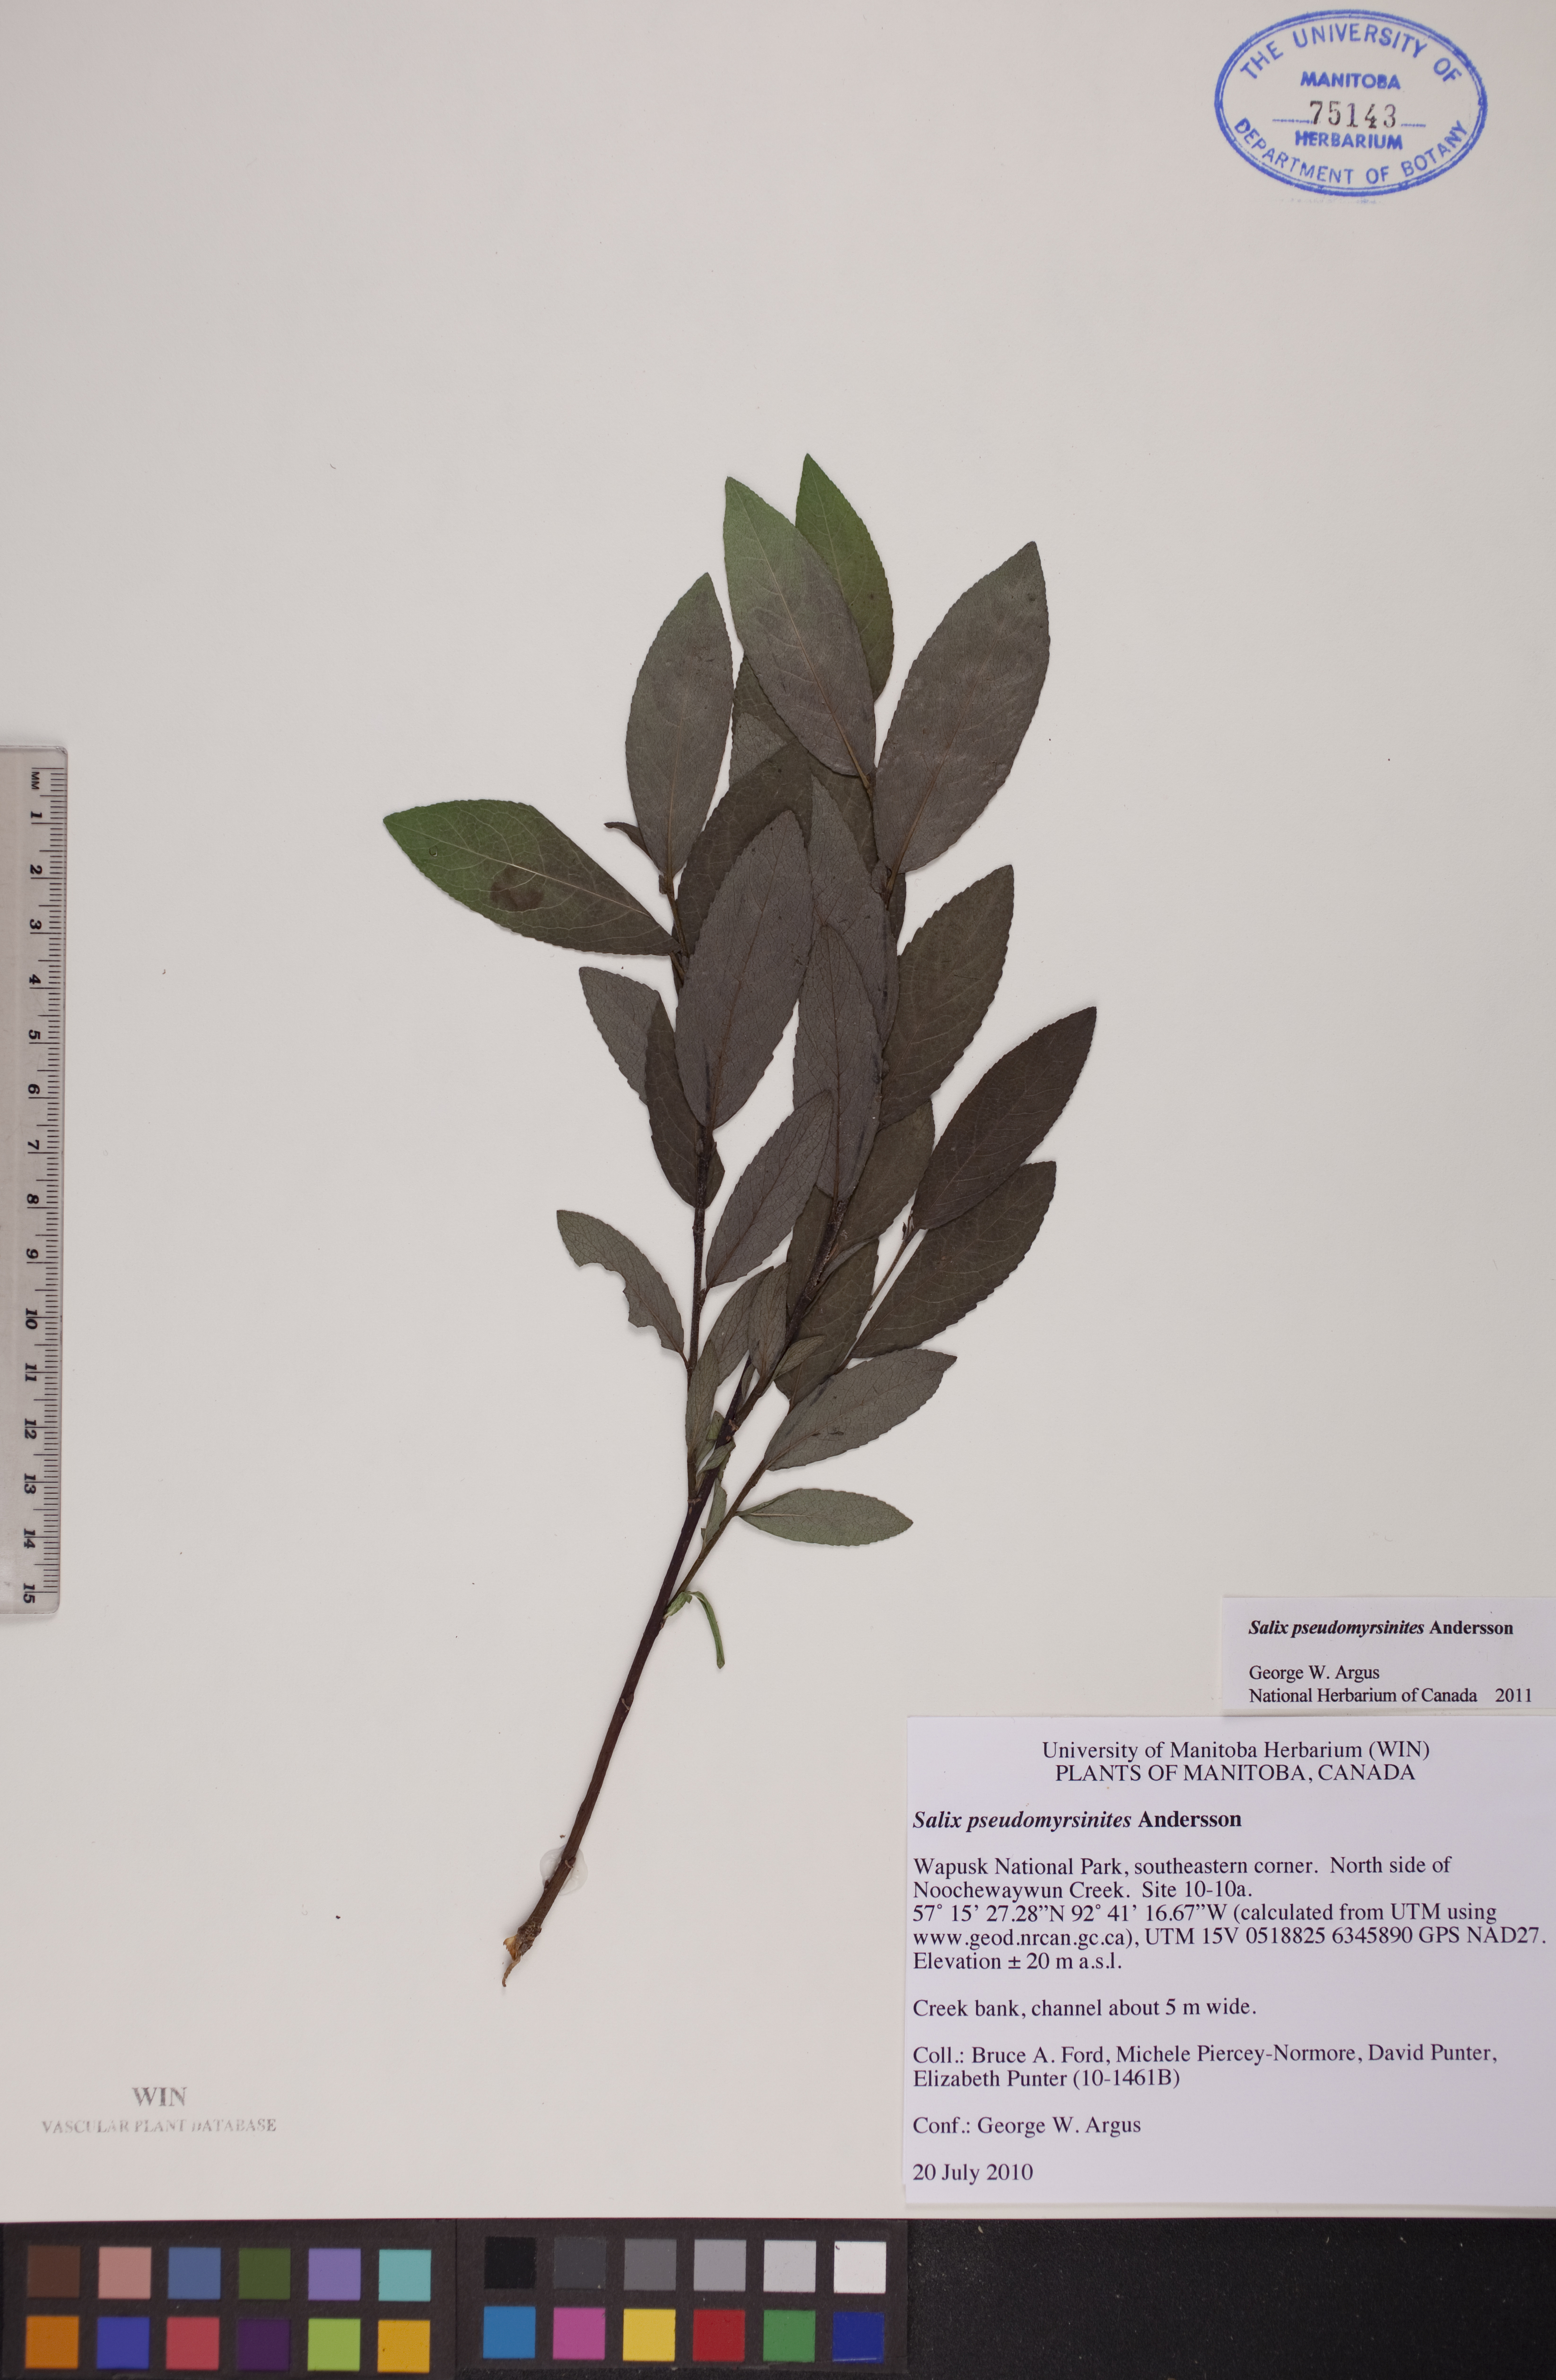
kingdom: Plantae
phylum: Tracheophyta
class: Magnoliopsida
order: Malpighiales
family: Salicaceae
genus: Salix
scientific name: Salix pseudomyrsinites
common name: Tall blueberry willow
